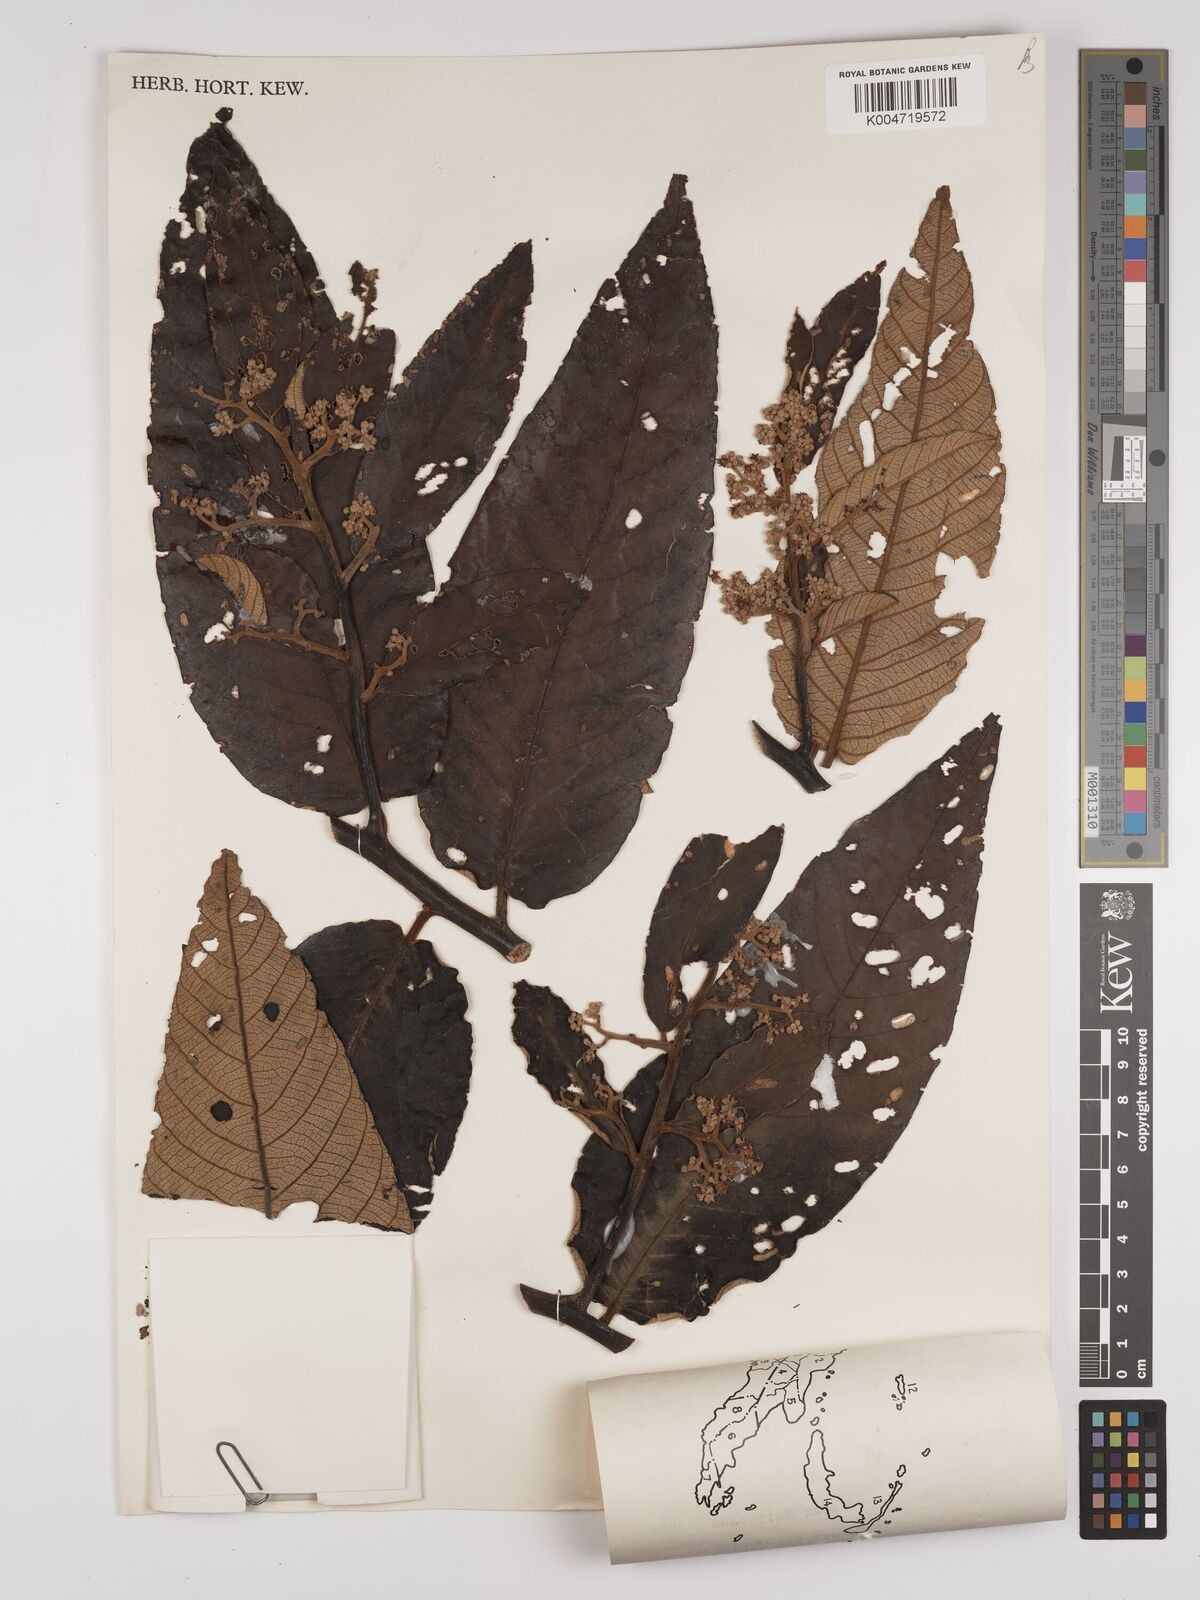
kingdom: Plantae
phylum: Tracheophyta
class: Magnoliopsida
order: Rosales
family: Rhamnaceae
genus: Alphitonia
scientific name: Alphitonia incana
